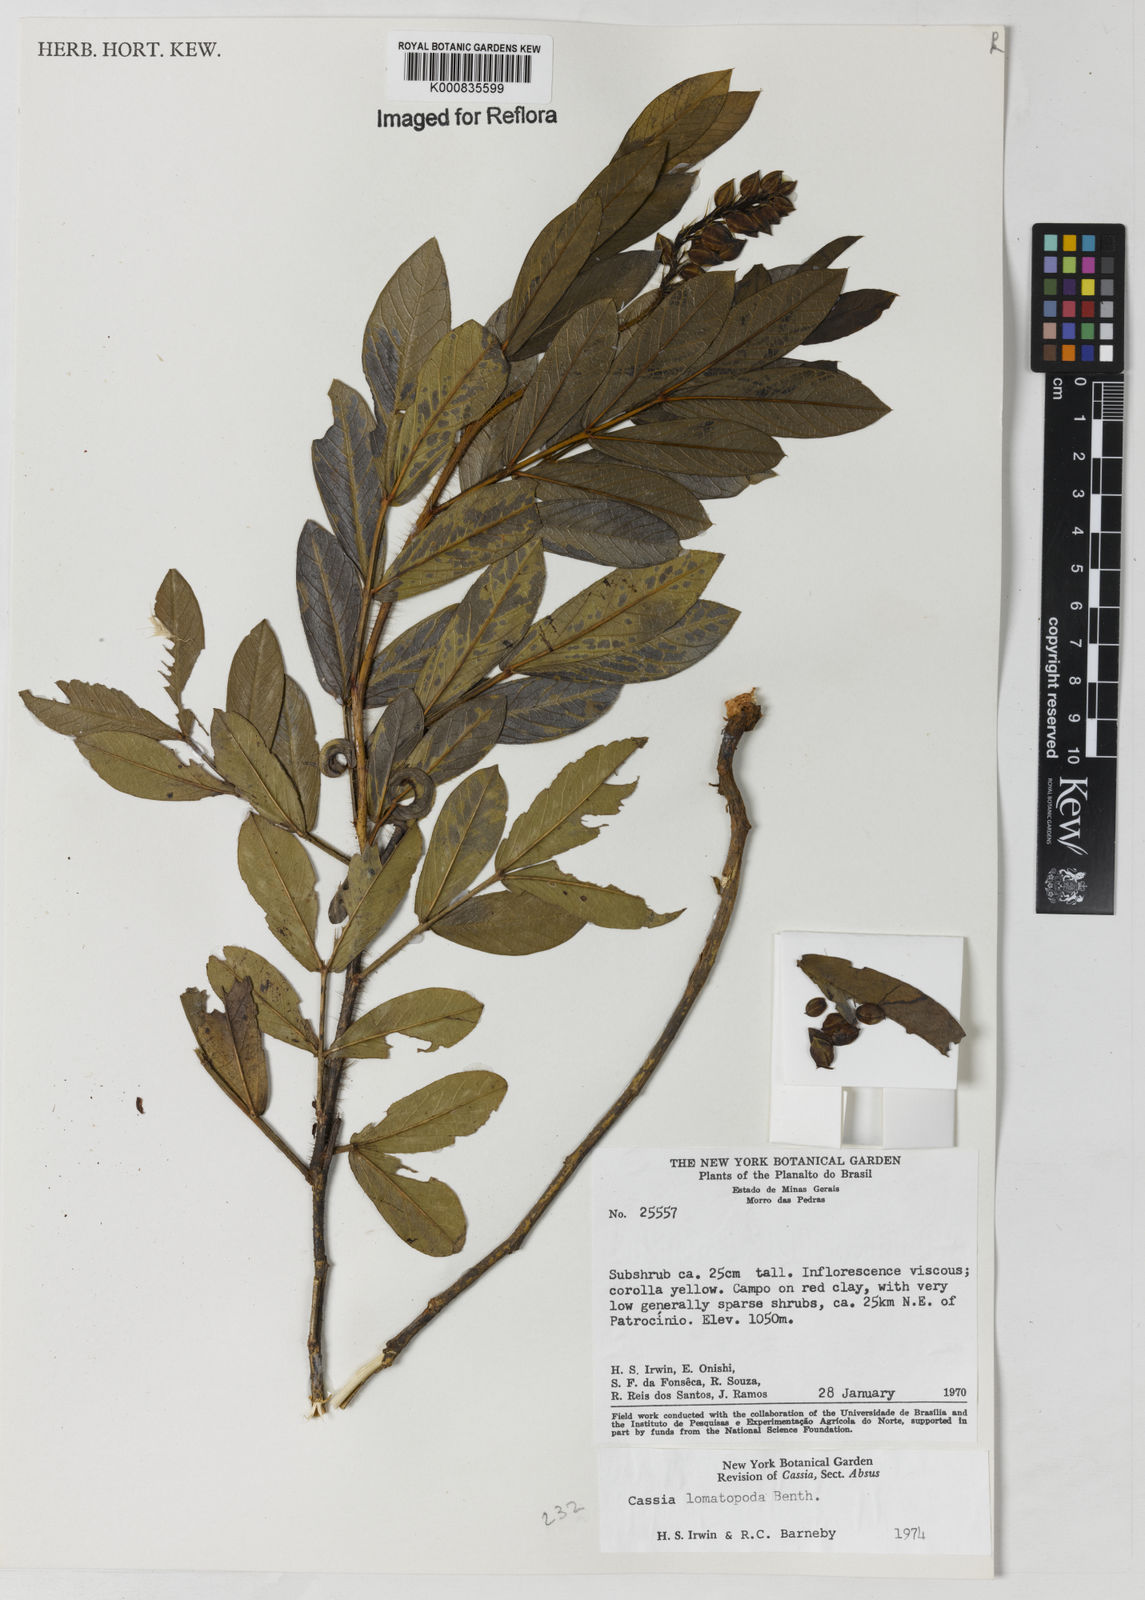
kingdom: Plantae
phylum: Tracheophyta
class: Magnoliopsida
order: Fabales
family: Fabaceae
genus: Chamaecrista
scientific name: Chamaecrista lomatopoda
